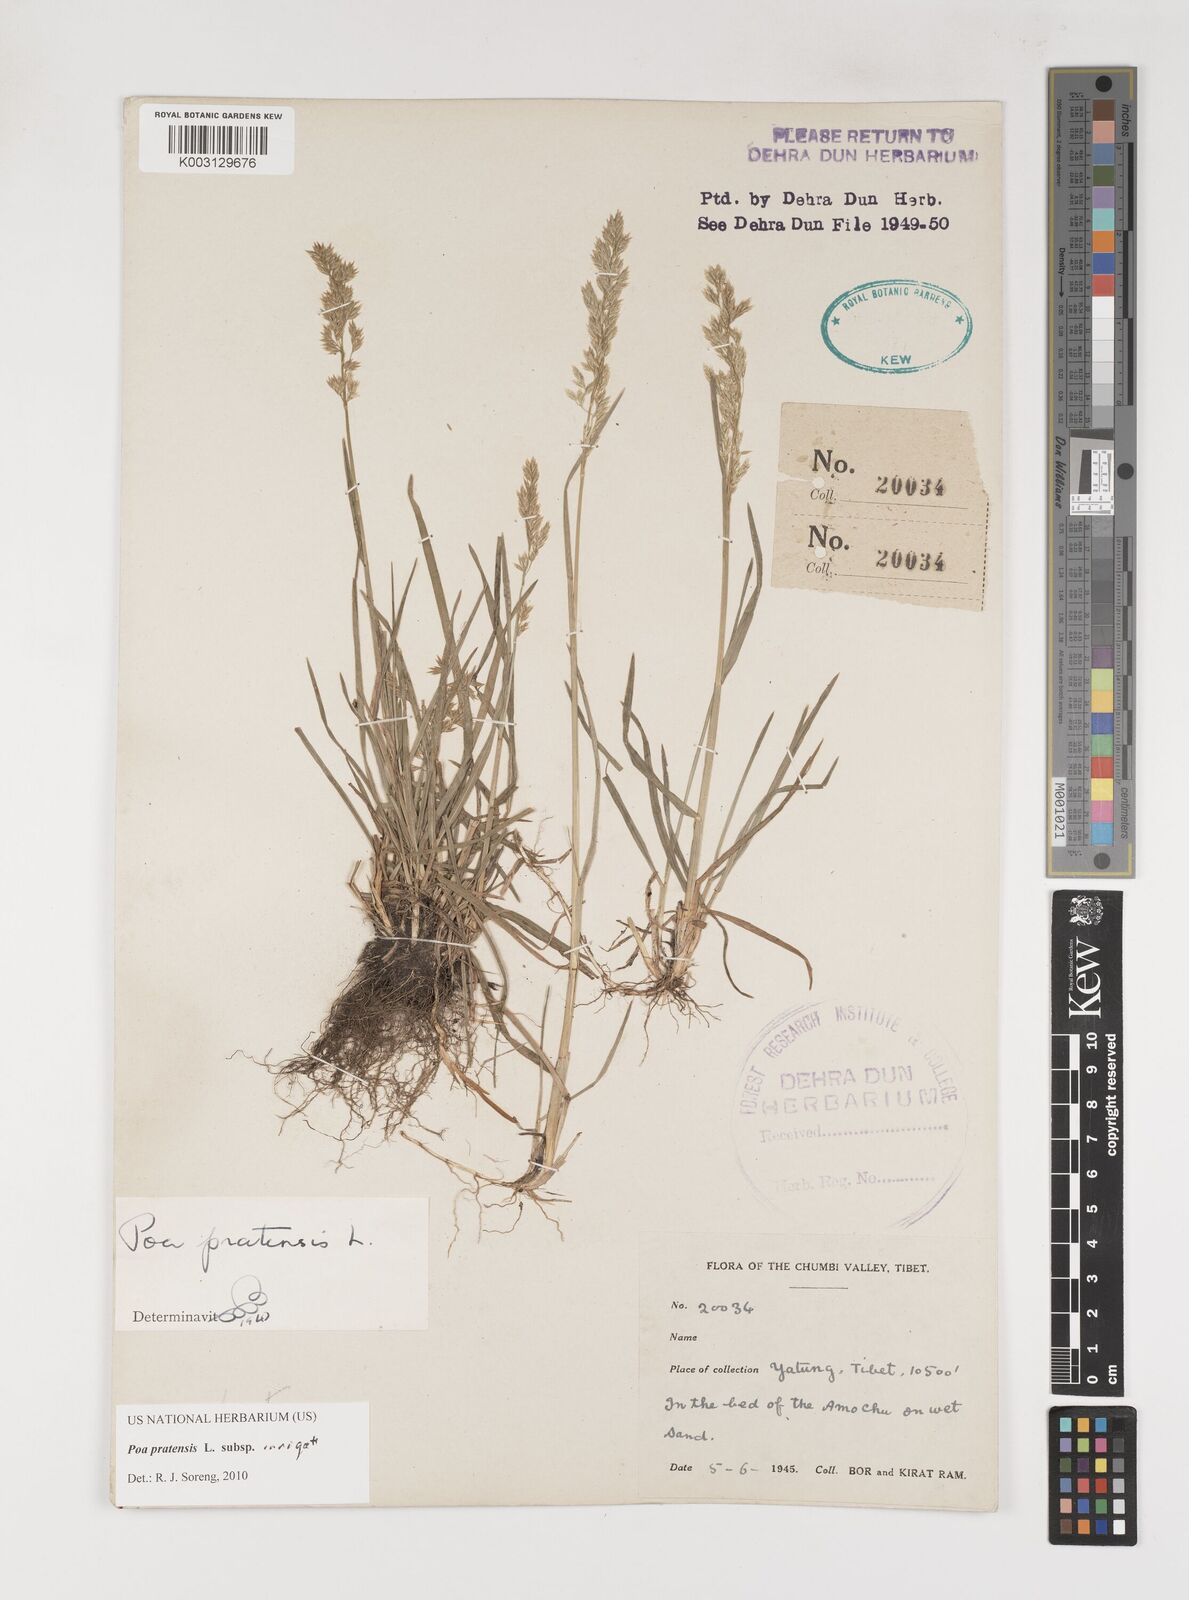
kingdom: Plantae
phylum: Tracheophyta
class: Liliopsida
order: Poales
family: Poaceae
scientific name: Poaceae
